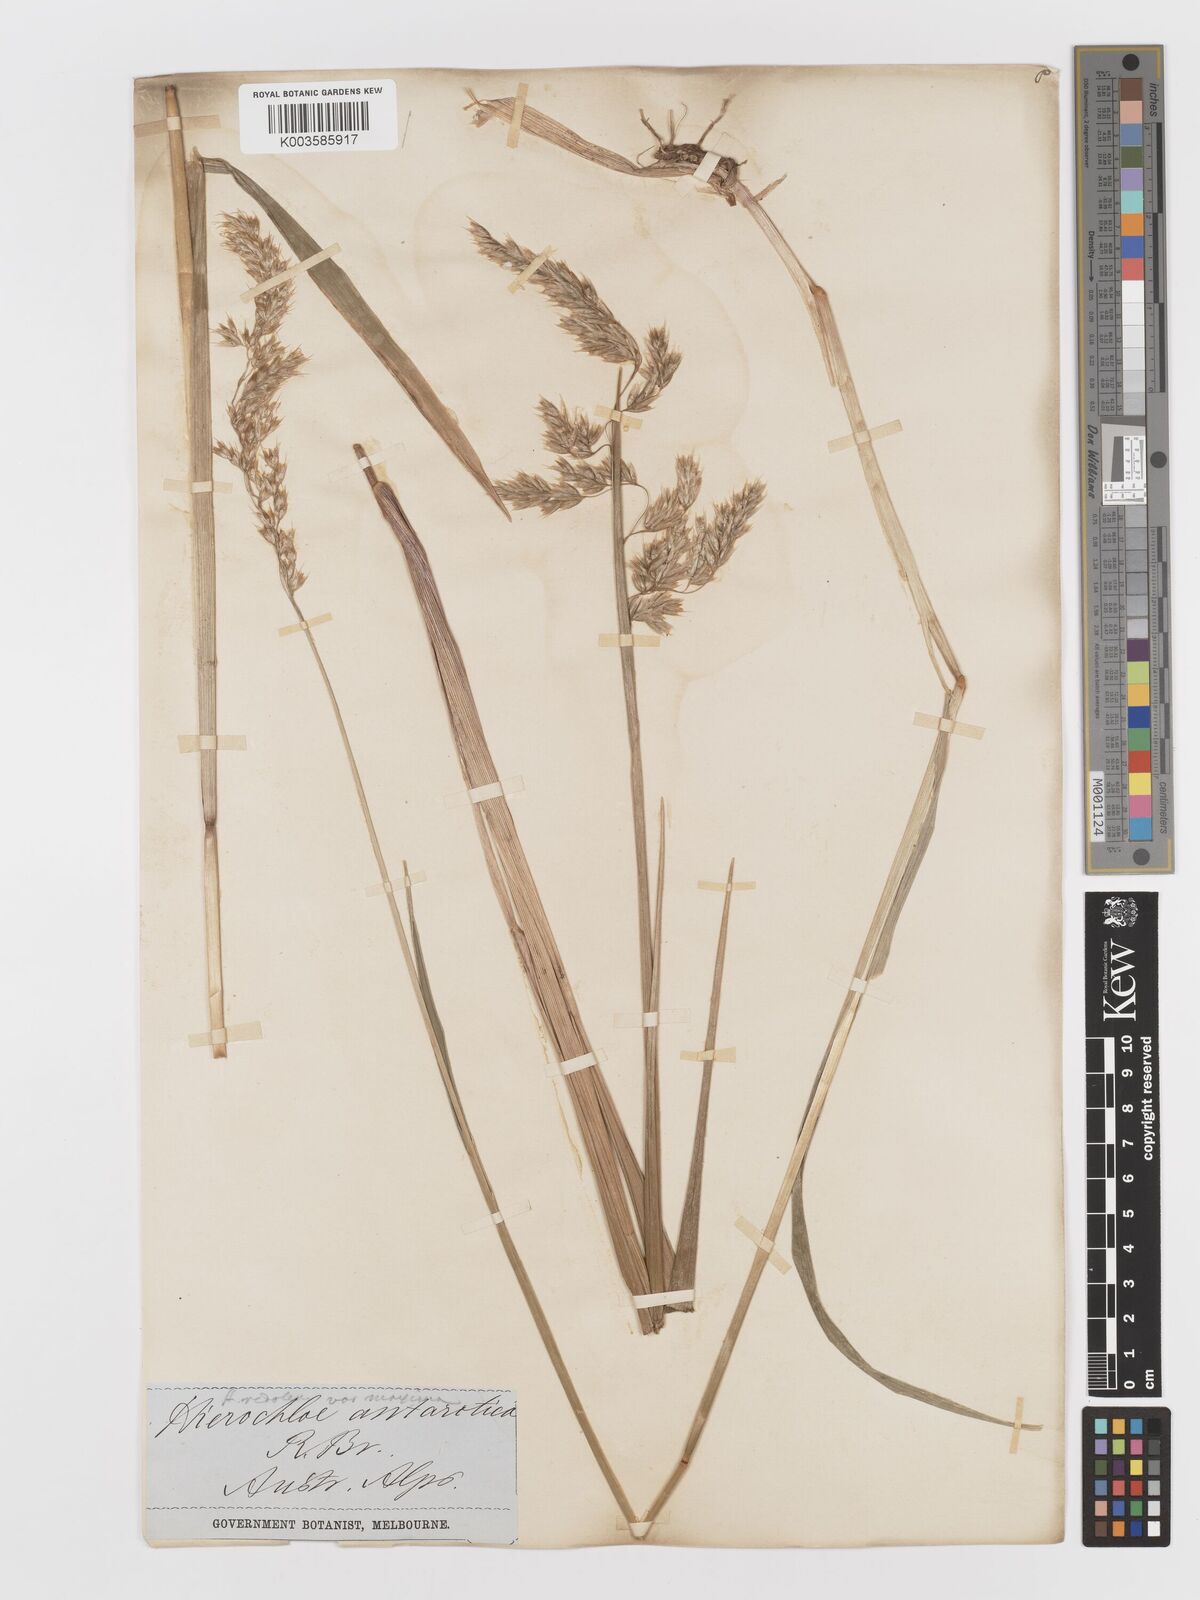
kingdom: Plantae
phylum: Tracheophyta
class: Liliopsida
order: Poales
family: Poaceae
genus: Anthoxanthum
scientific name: Anthoxanthum redolens
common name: Sweet holy grass
